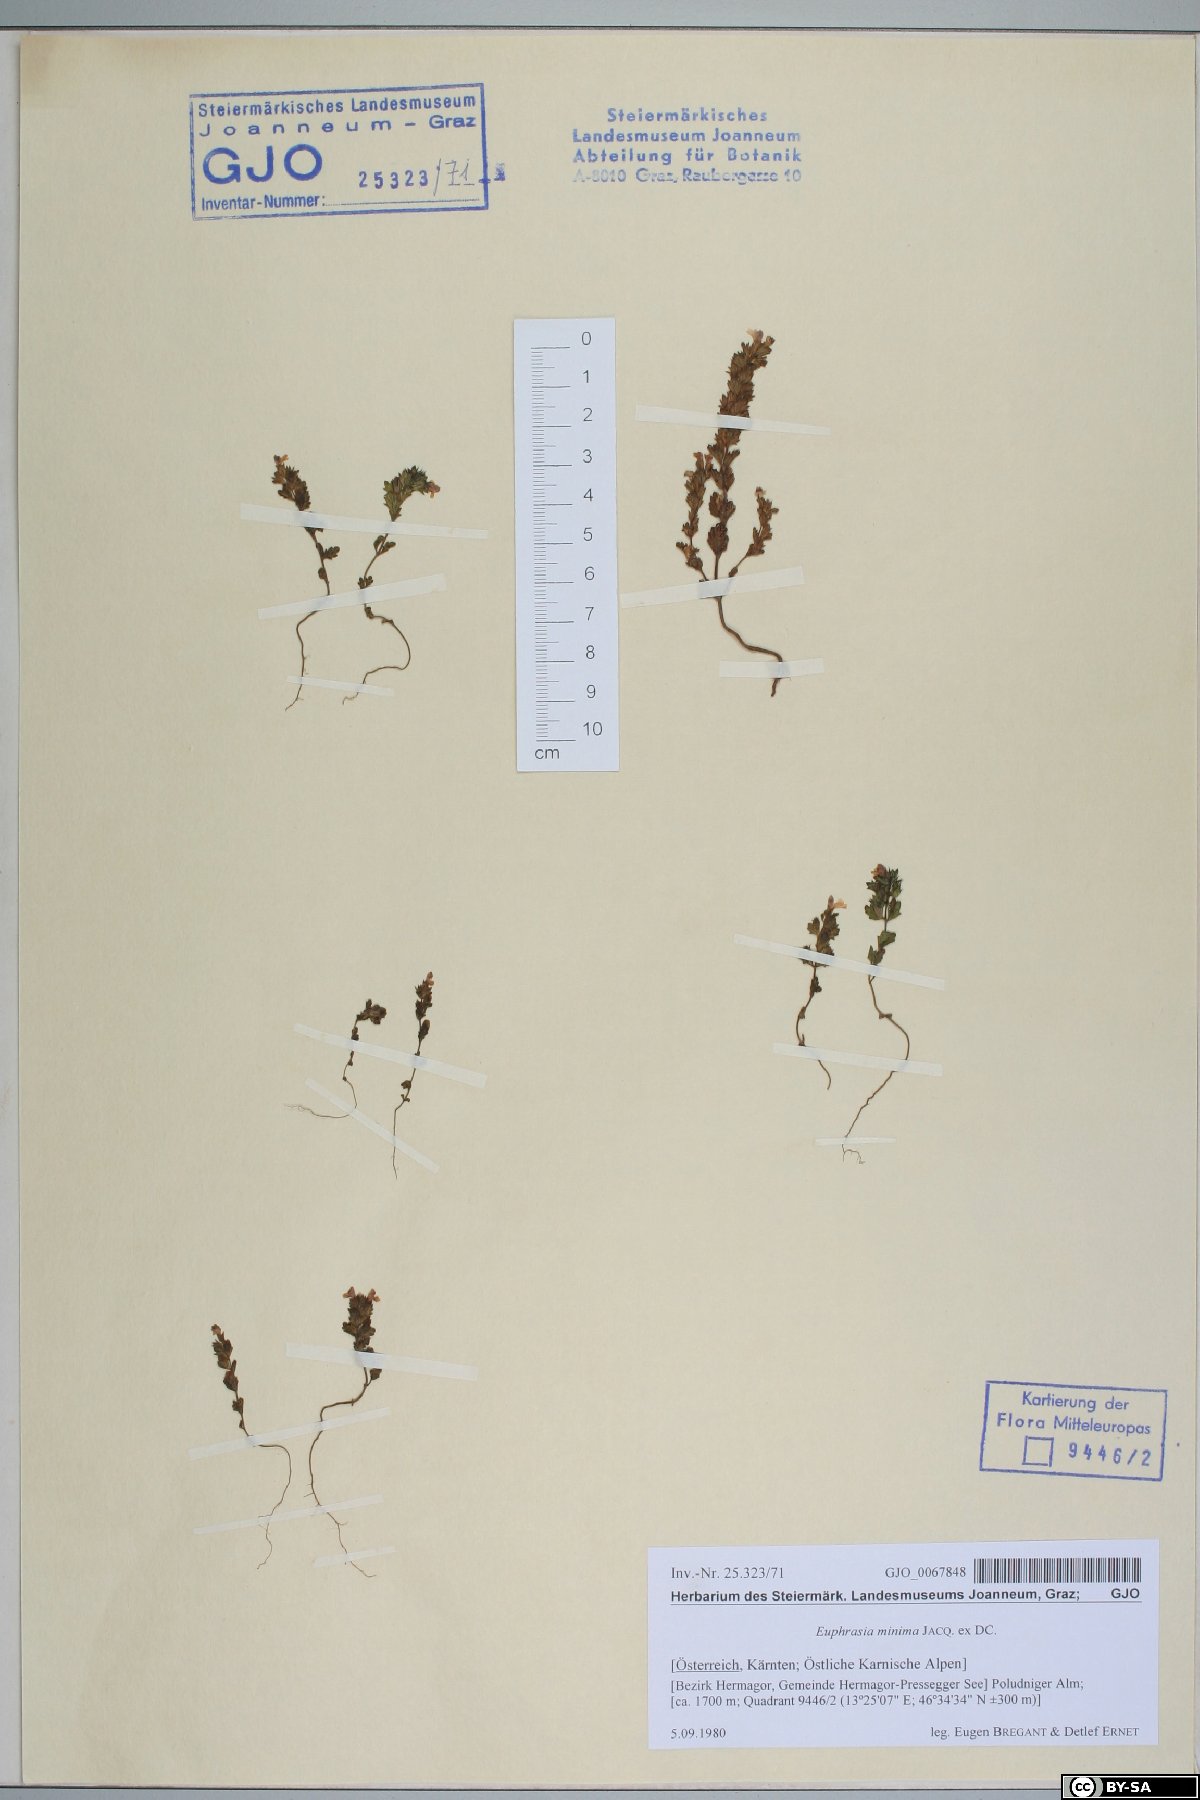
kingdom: Plantae
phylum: Tracheophyta
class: Magnoliopsida
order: Lamiales
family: Orobanchaceae
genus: Euphrasia
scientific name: Euphrasia minima
